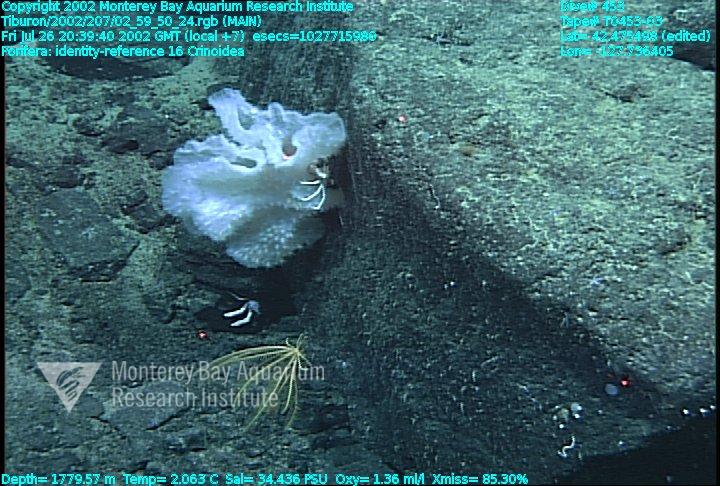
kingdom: Animalia
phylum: Porifera
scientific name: Porifera
